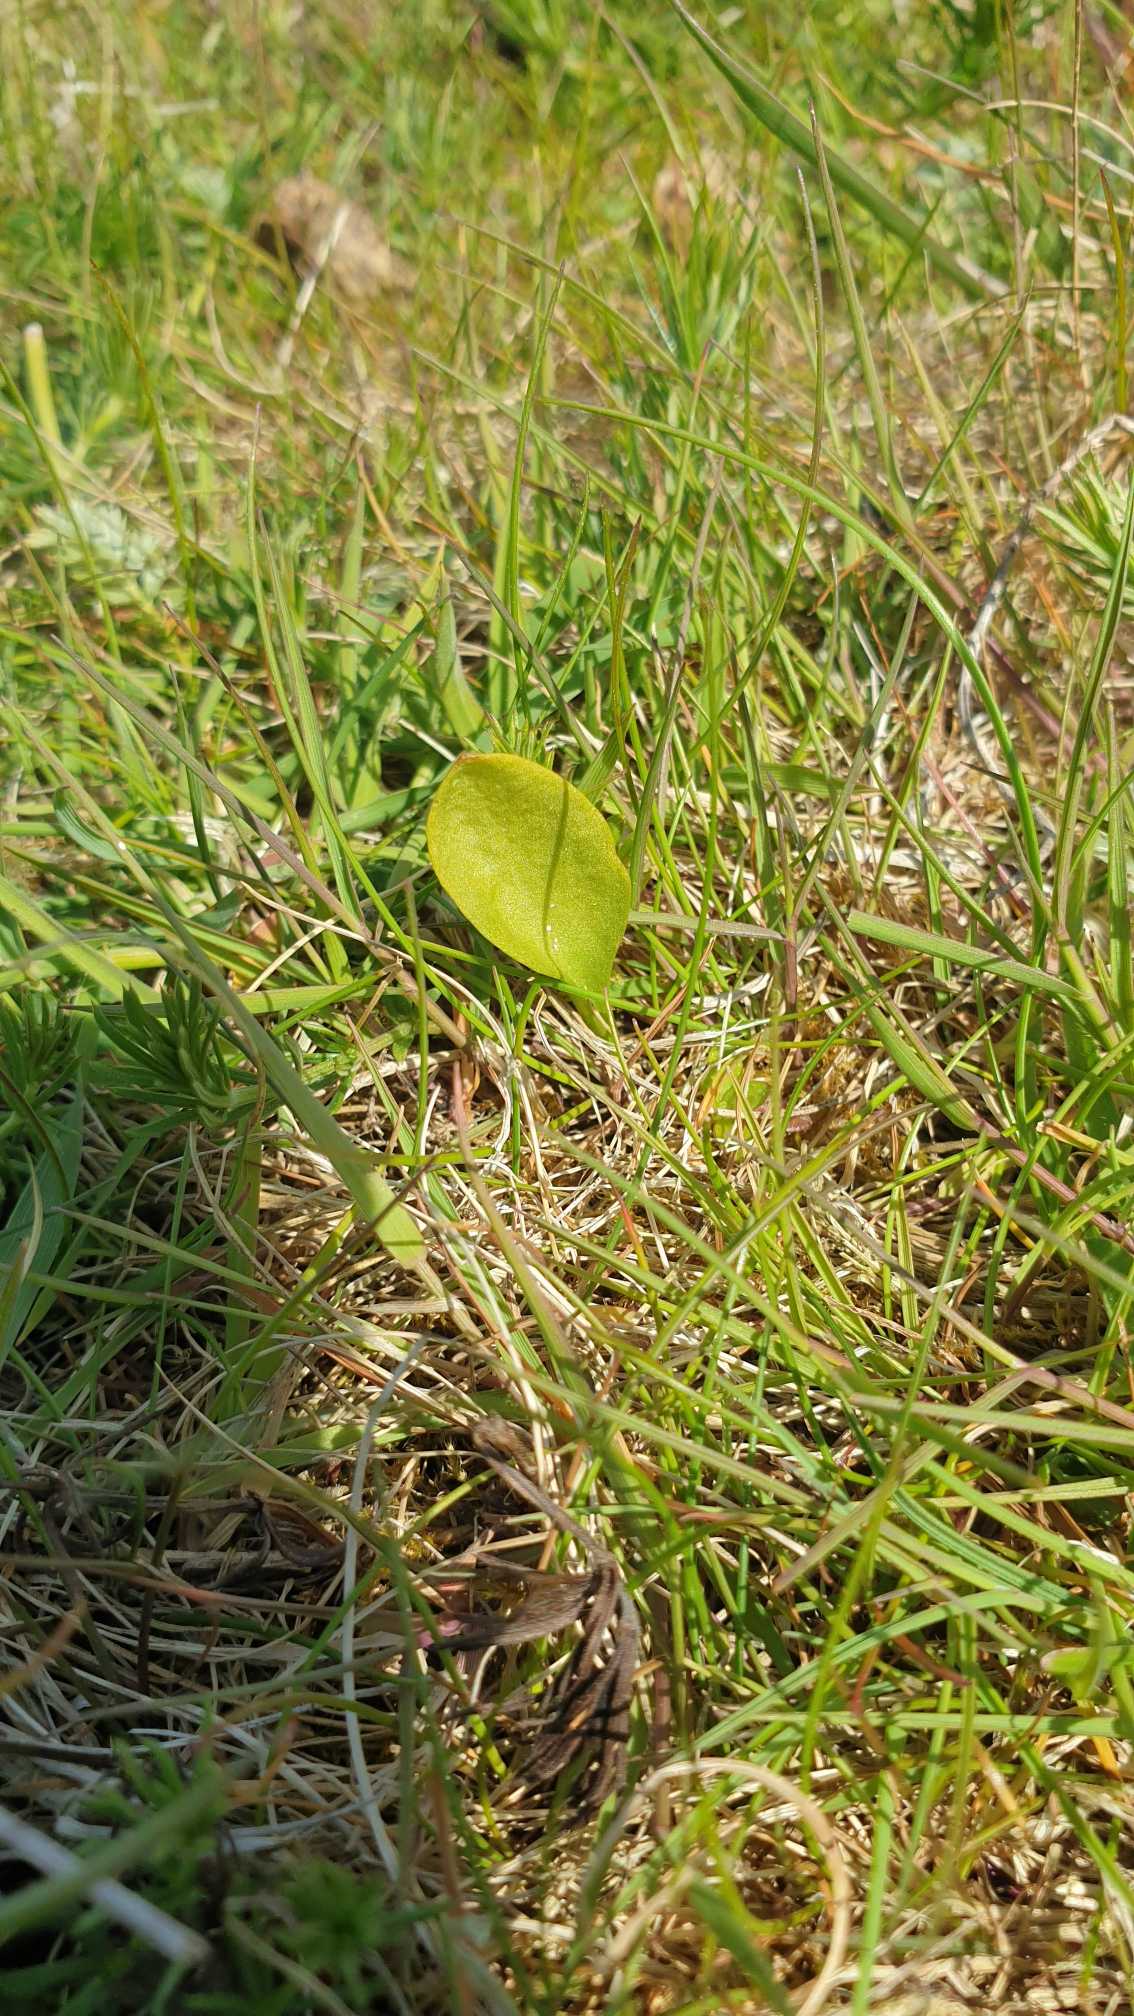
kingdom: Plantae
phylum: Tracheophyta
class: Polypodiopsida
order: Ophioglossales
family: Ophioglossaceae
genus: Ophioglossum
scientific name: Ophioglossum vulgatum
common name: Slangetunge
